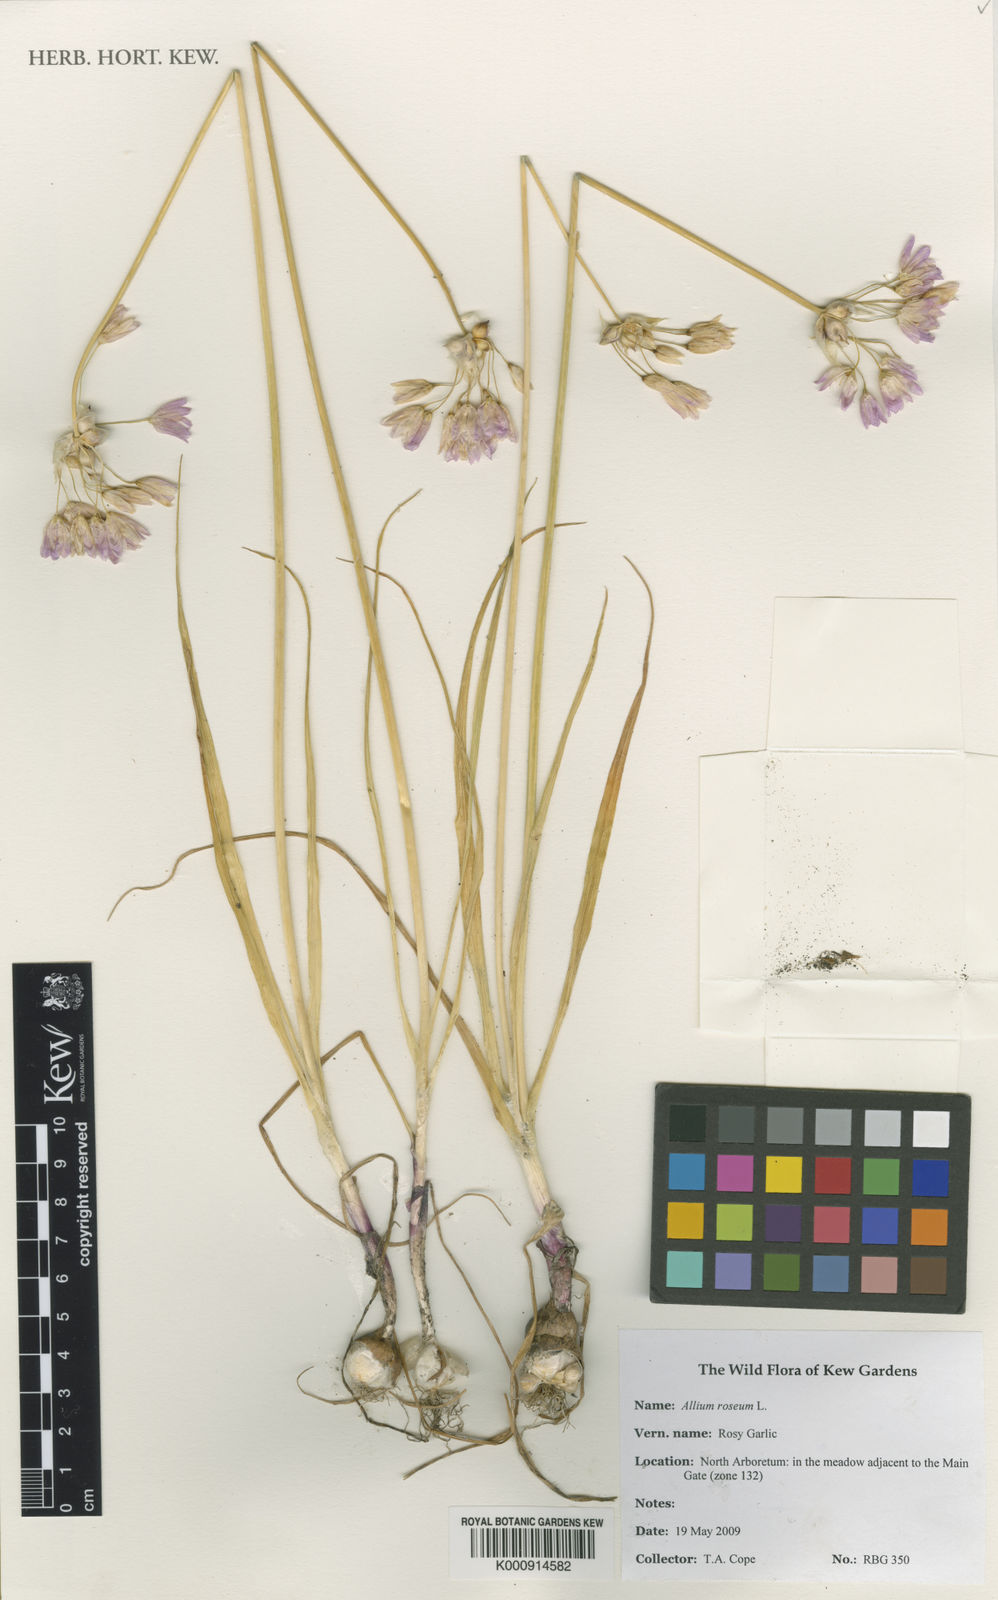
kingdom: Plantae
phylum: Tracheophyta
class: Liliopsida
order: Asparagales
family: Amaryllidaceae
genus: Allium
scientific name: Allium roseum
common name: Rosy garlic
